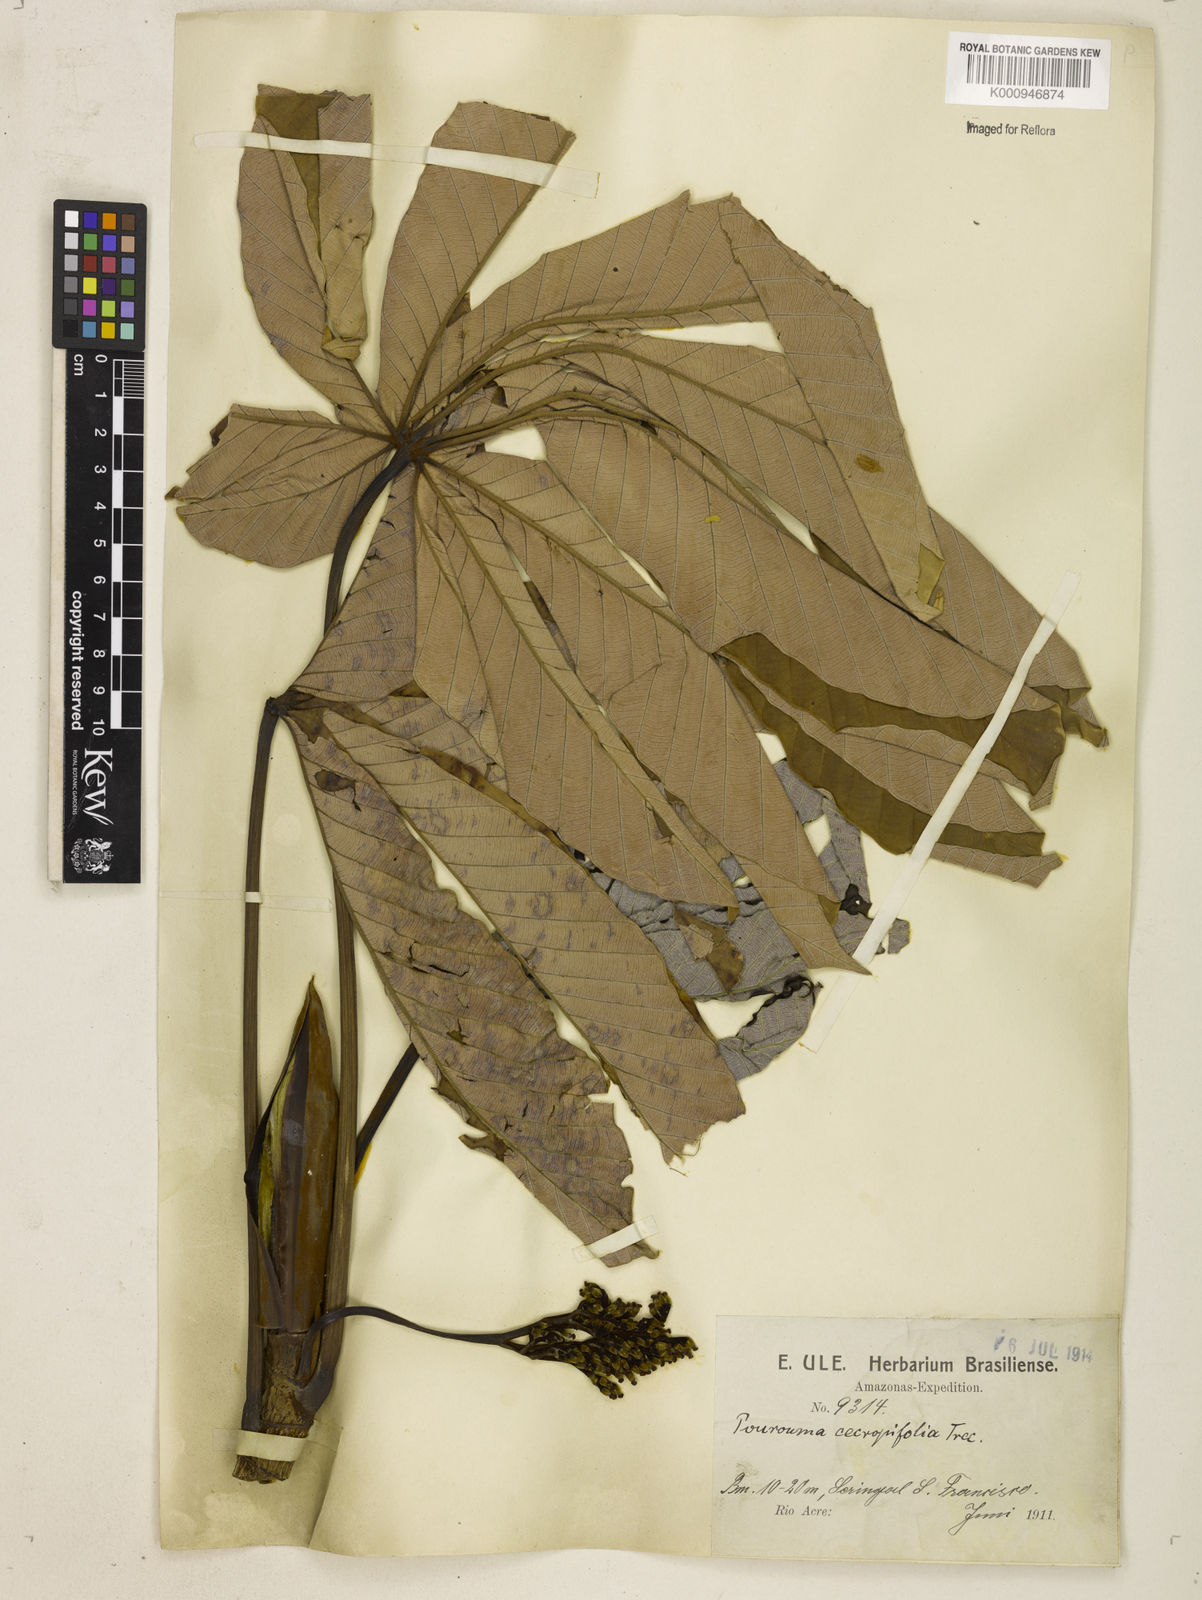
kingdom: Plantae
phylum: Tracheophyta
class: Magnoliopsida
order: Rosales
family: Urticaceae
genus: Pourouma
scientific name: Pourouma cecropiifolia
